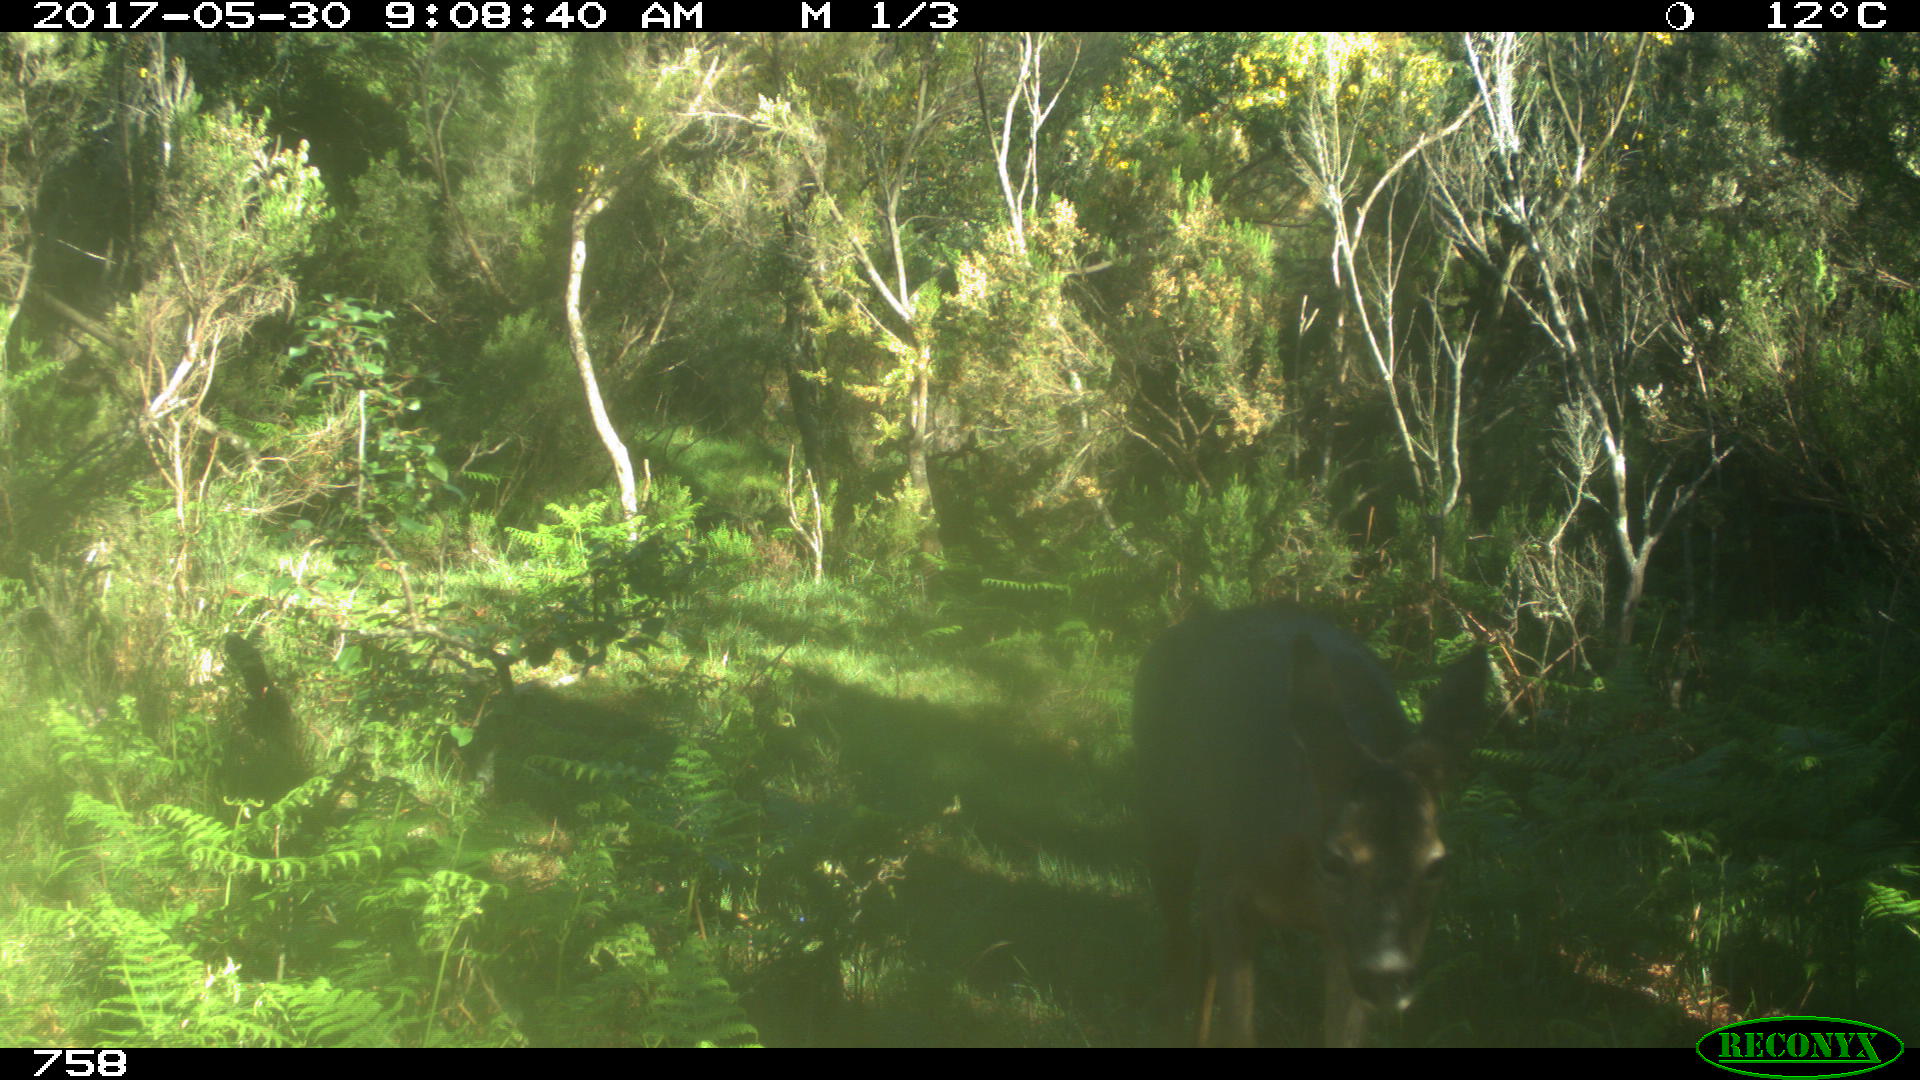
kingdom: Animalia
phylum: Chordata
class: Mammalia
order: Artiodactyla
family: Cervidae
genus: Capreolus
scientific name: Capreolus capreolus
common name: Western roe deer
